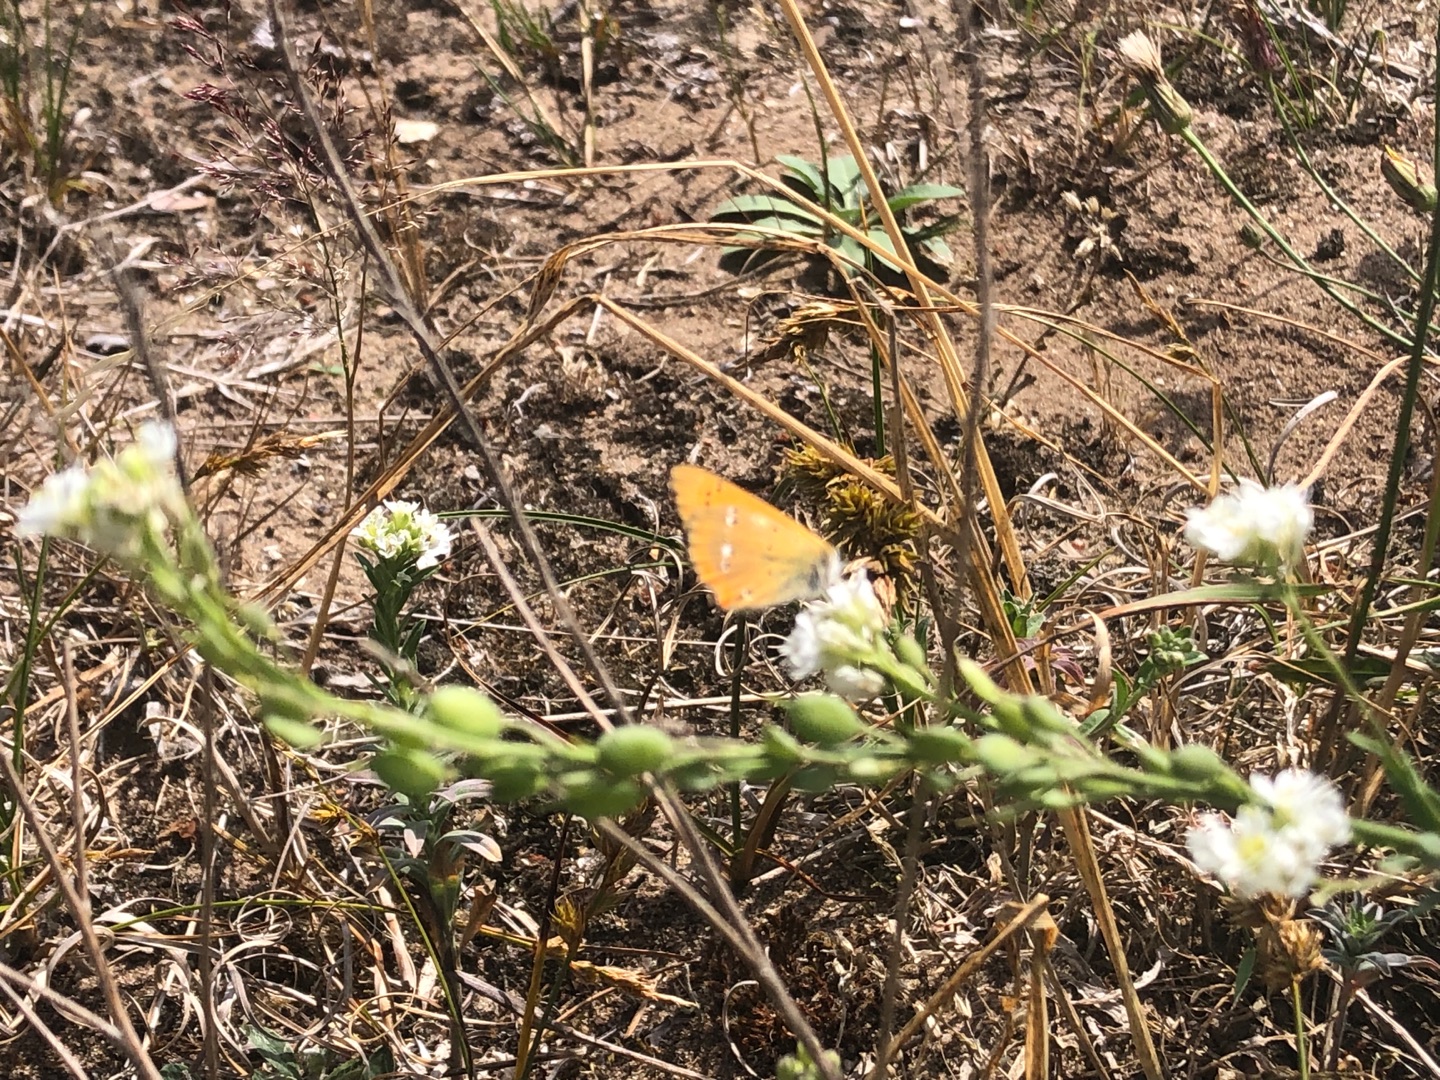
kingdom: Animalia
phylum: Arthropoda
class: Insecta
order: Lepidoptera
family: Lycaenidae
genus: Lycaena
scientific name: Lycaena virgaureae
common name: Dukatsommerfugl
